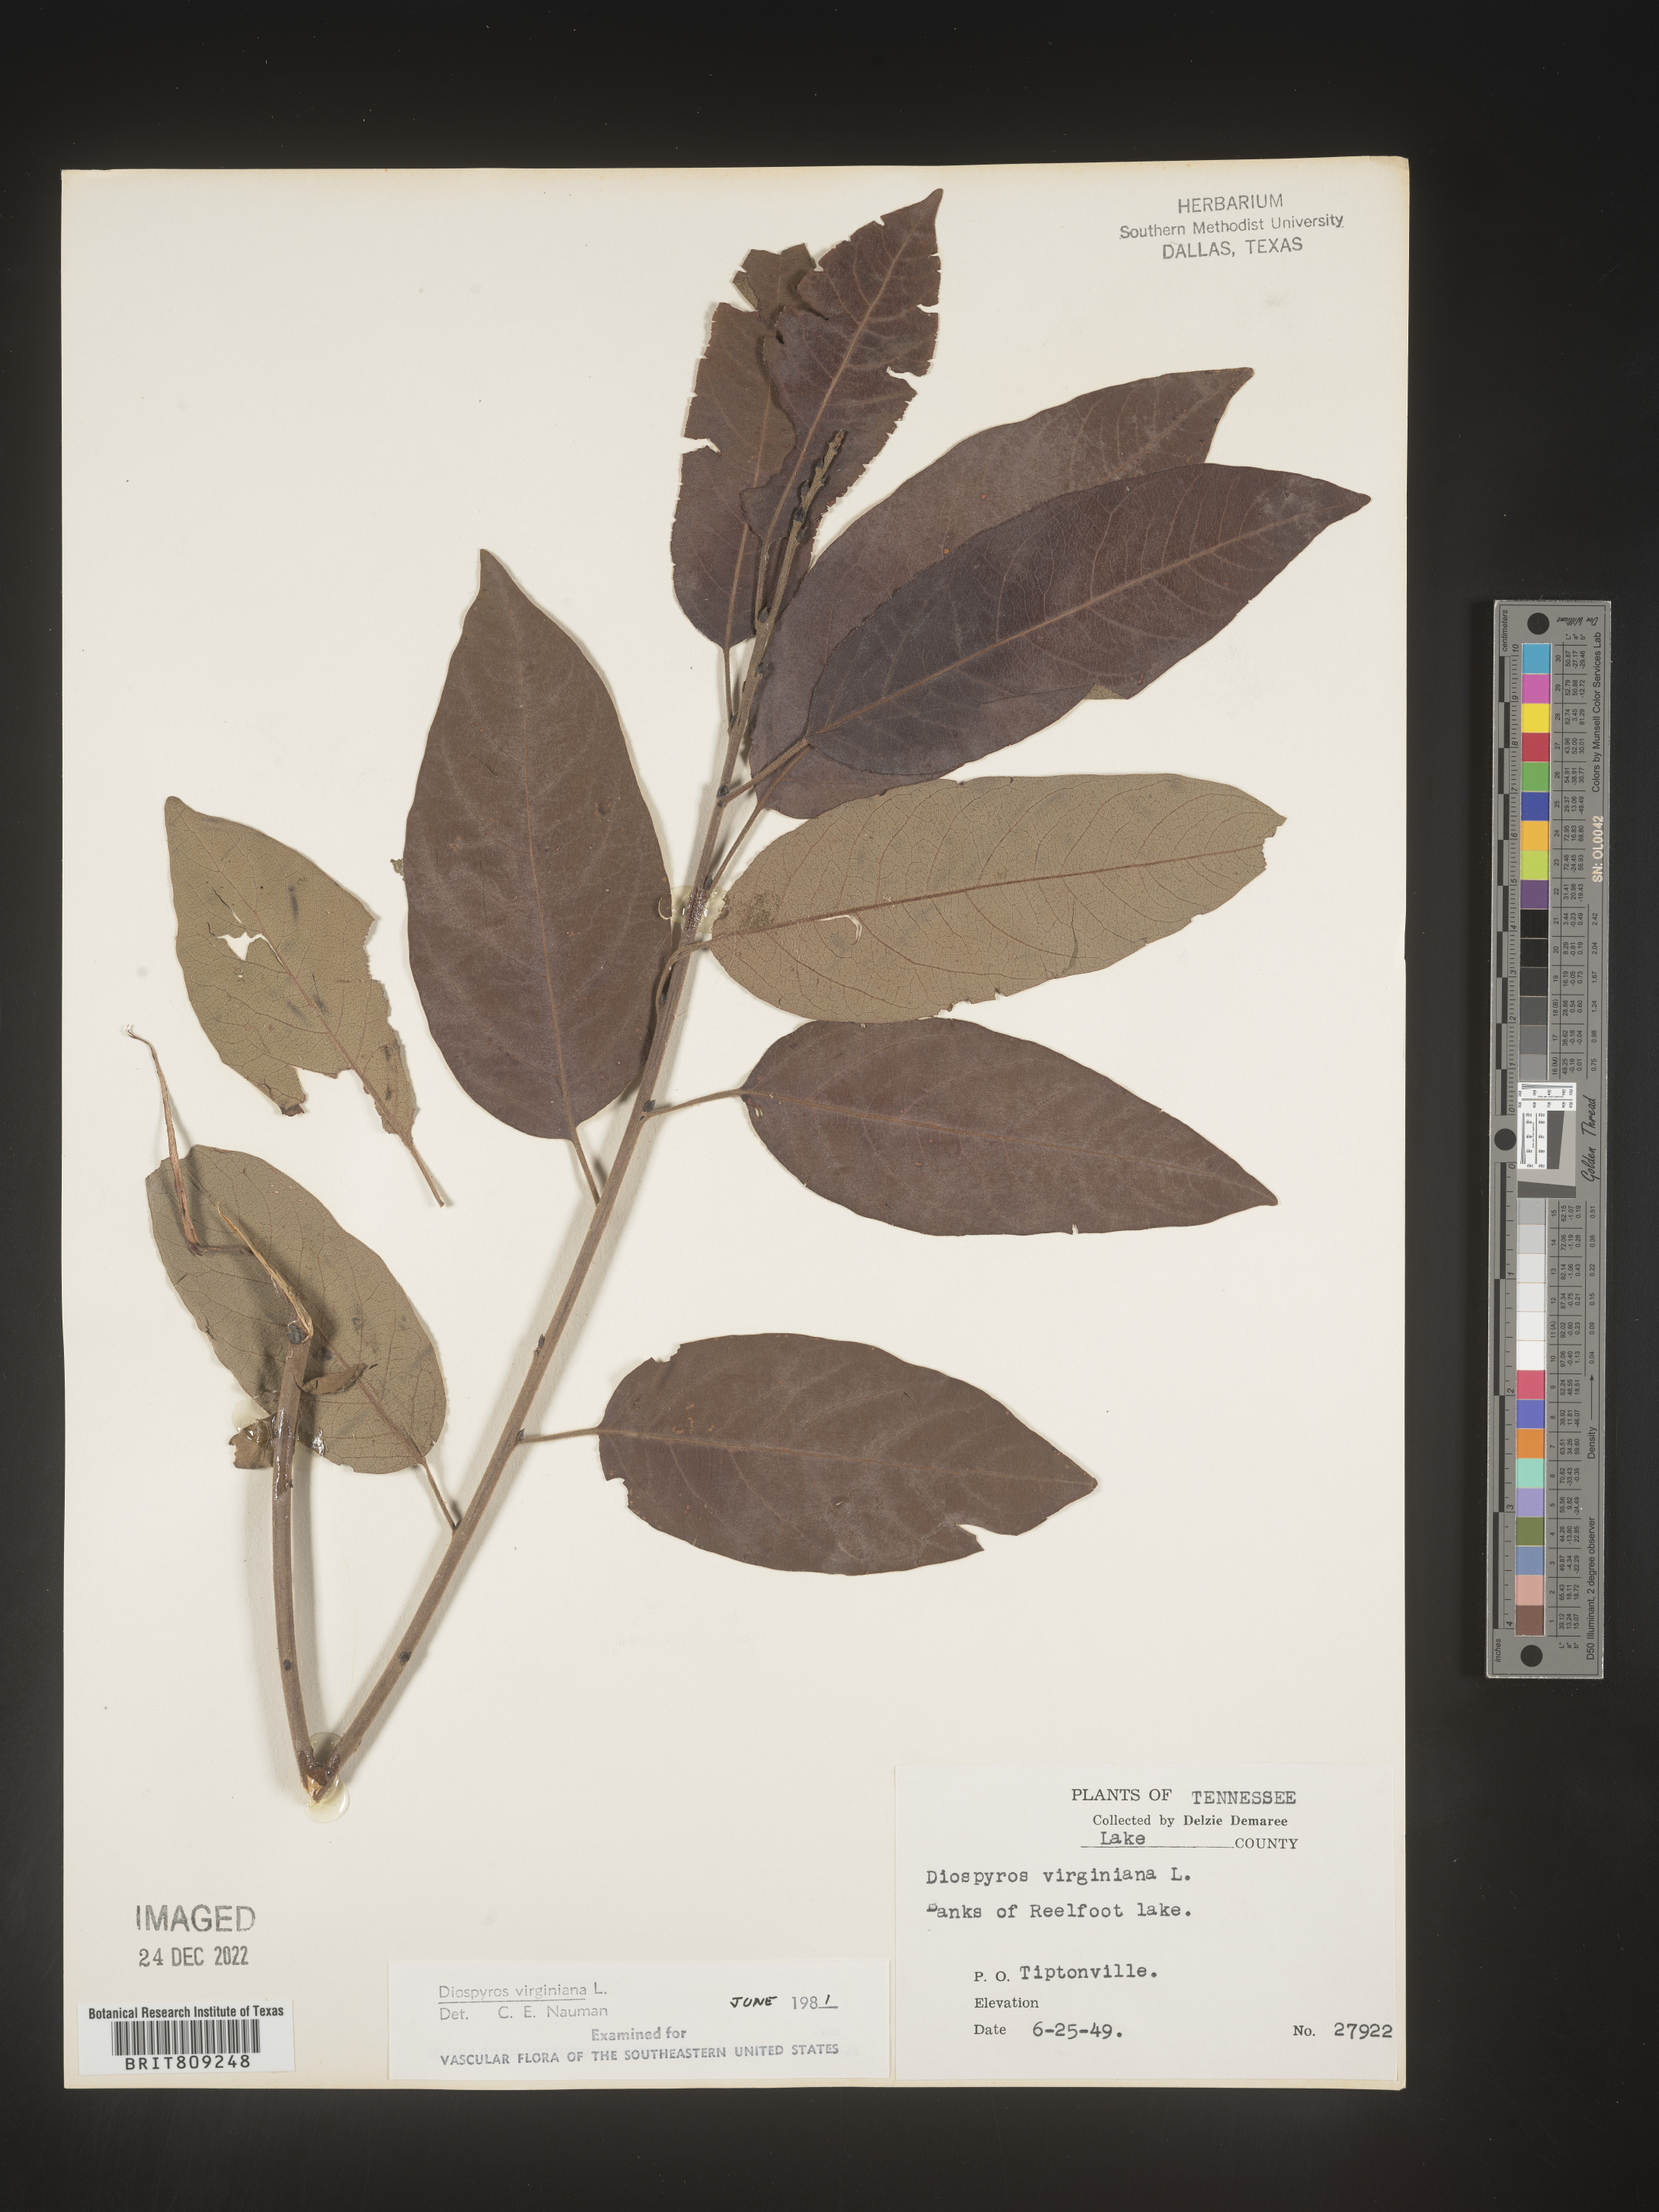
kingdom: Plantae
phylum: Tracheophyta
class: Magnoliopsida
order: Ericales
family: Ebenaceae
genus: Diospyros
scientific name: Diospyros virginiana
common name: Persimmon
